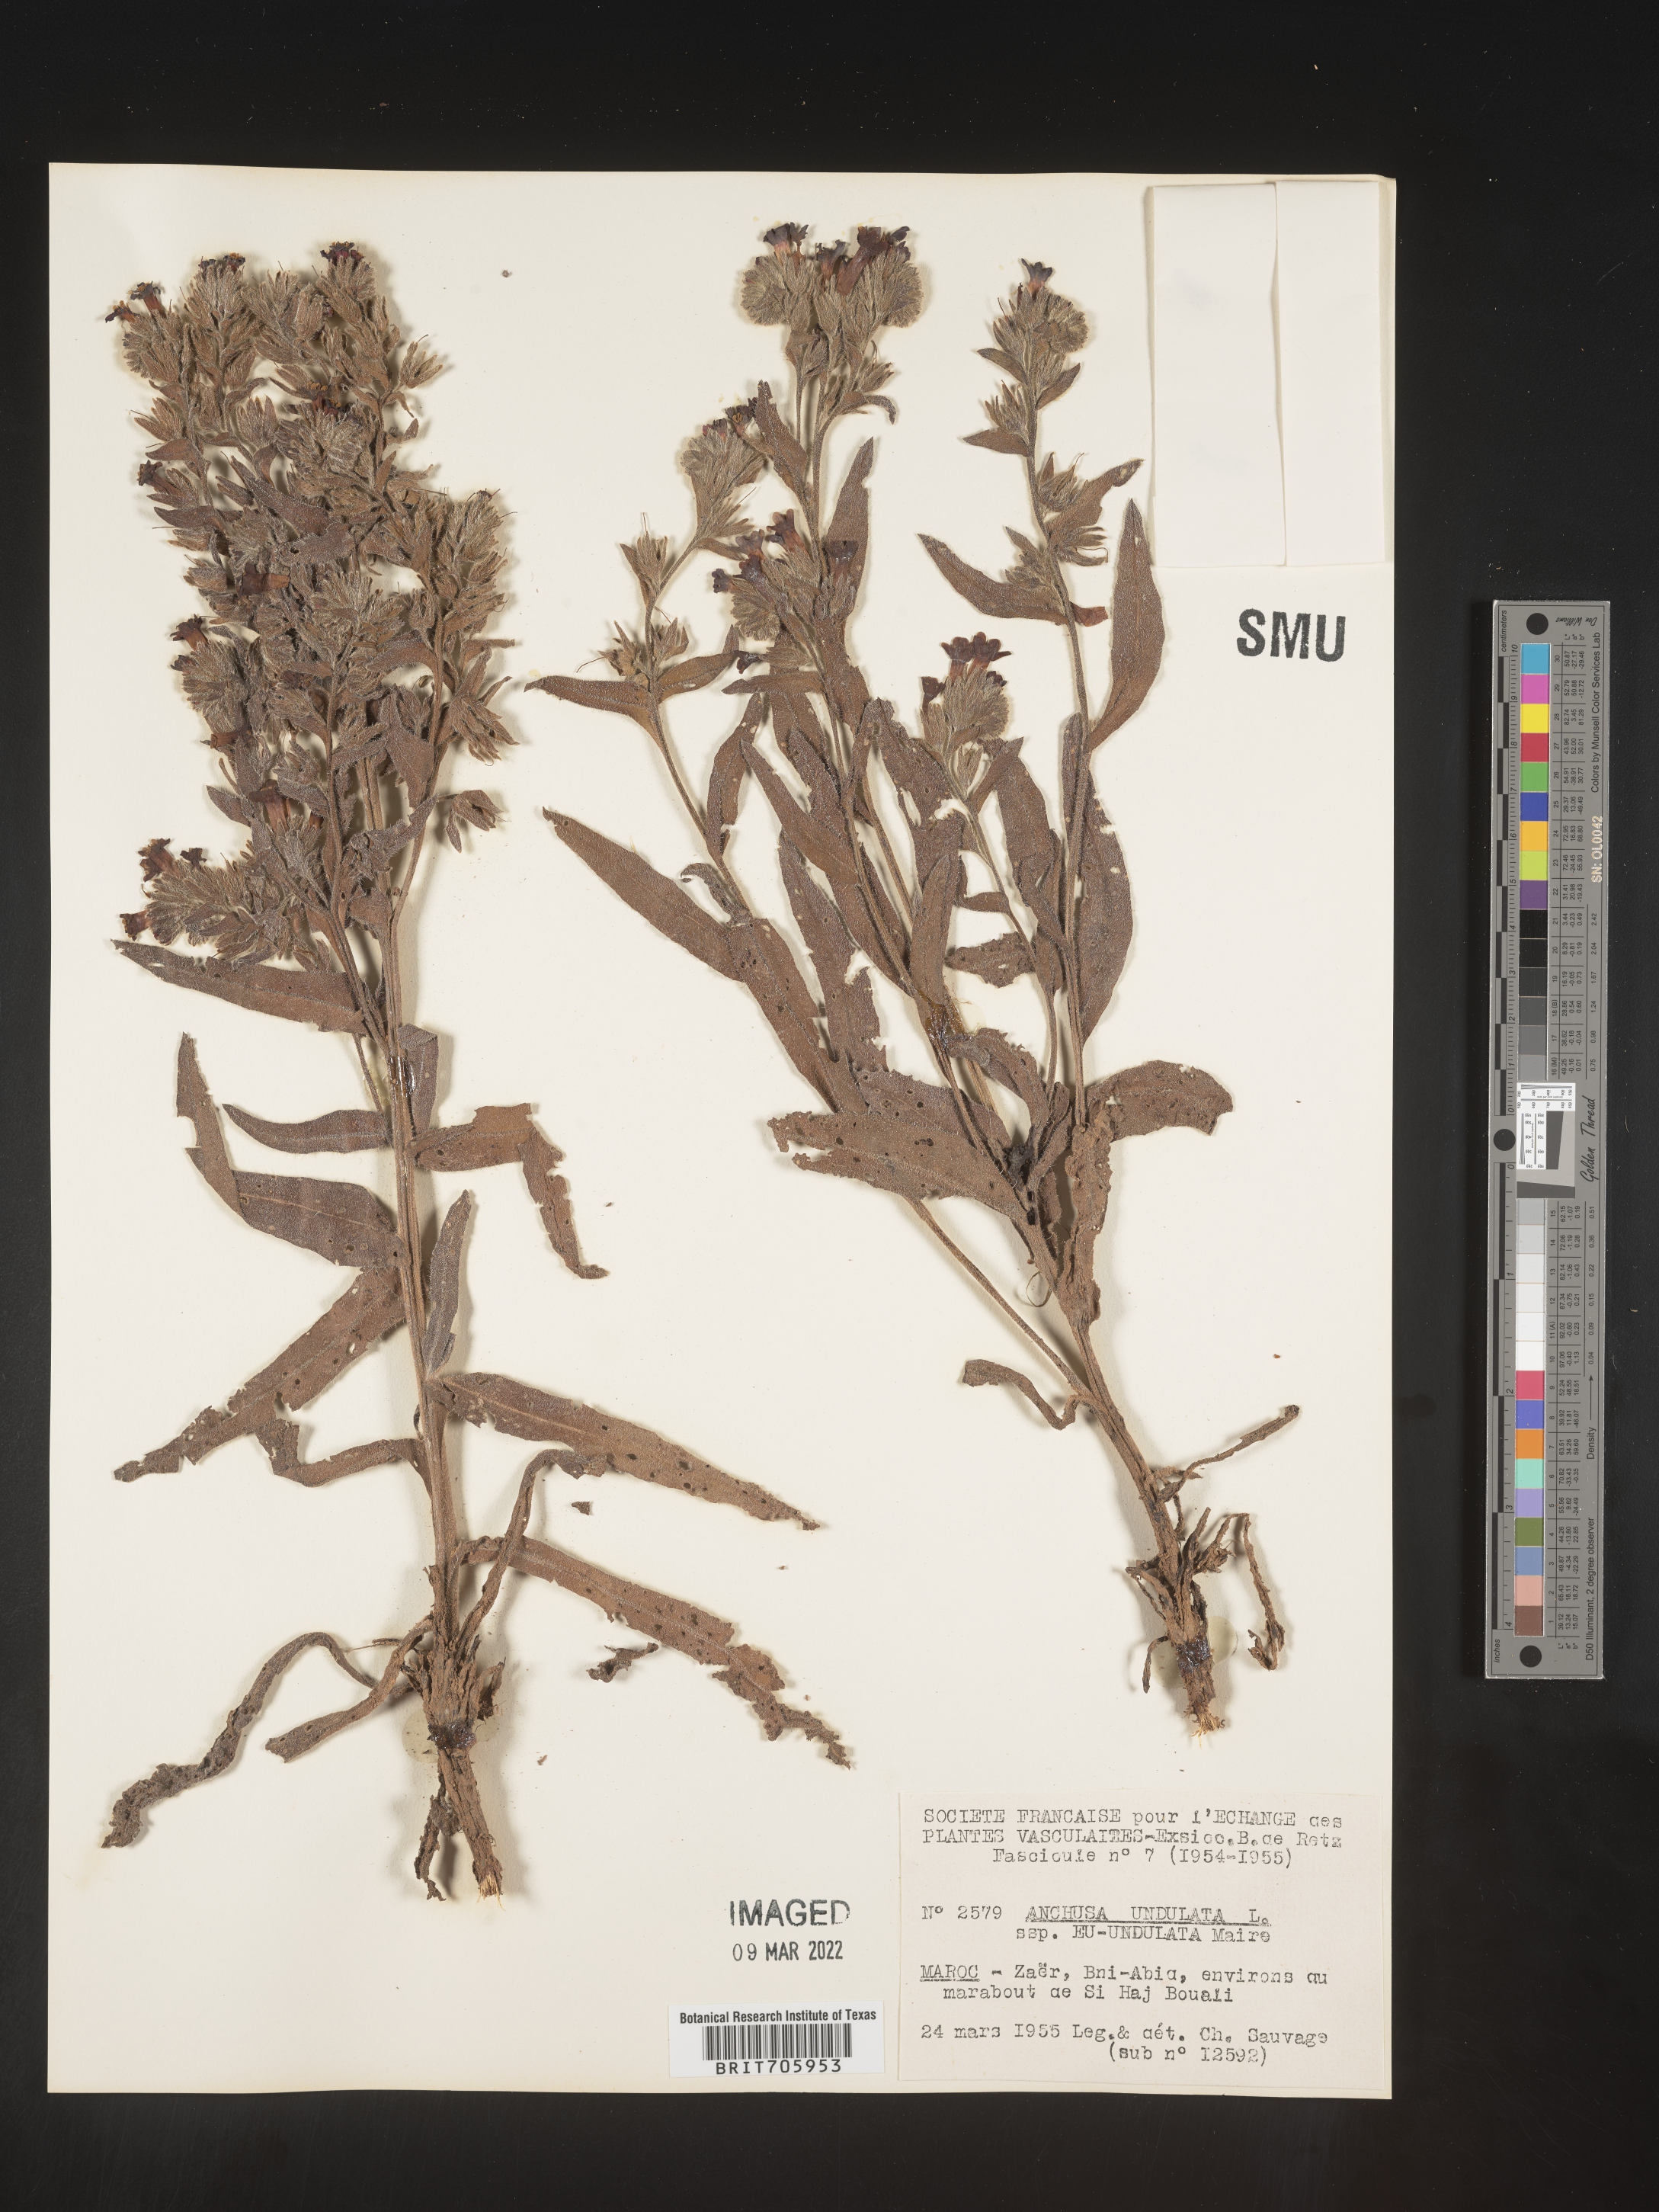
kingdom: Plantae
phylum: Tracheophyta
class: Magnoliopsida
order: Boraginales
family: Boraginaceae
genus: Anchusa
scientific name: Anchusa
